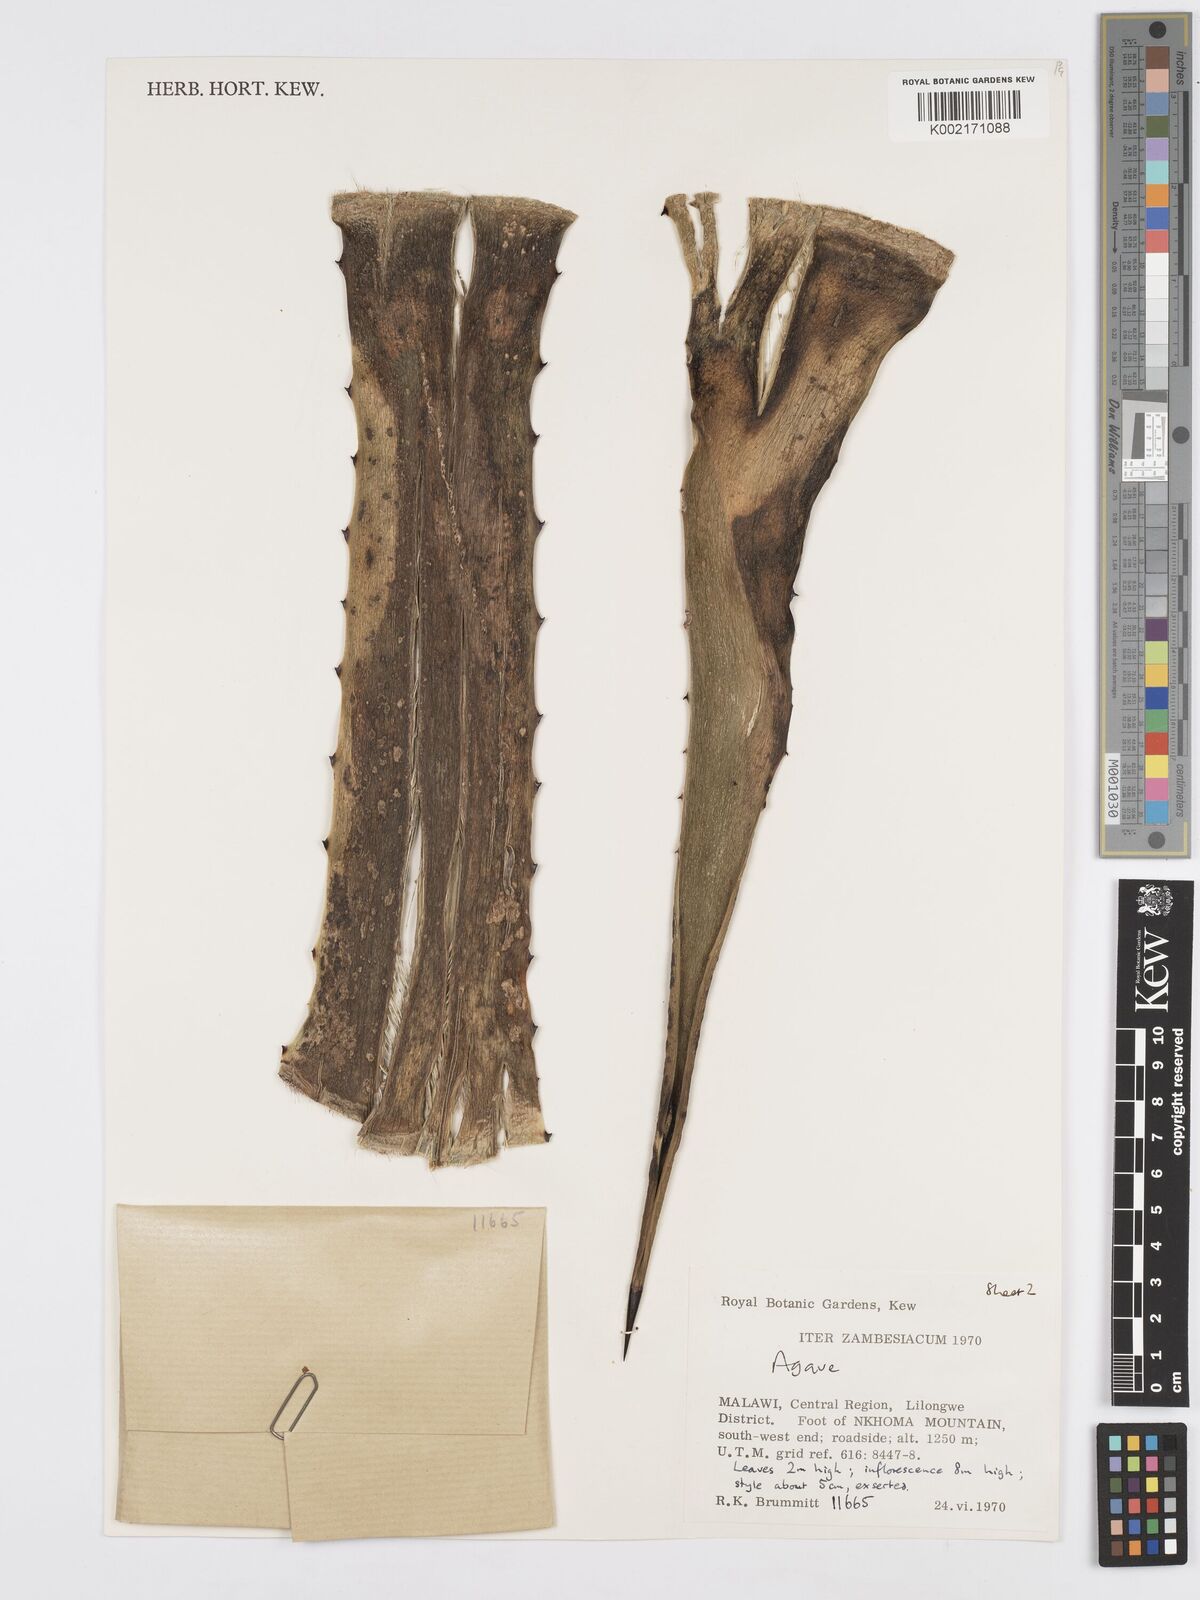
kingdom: Plantae
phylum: Tracheophyta
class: Liliopsida
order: Asparagales
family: Asparagaceae
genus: Agave
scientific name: Agave
